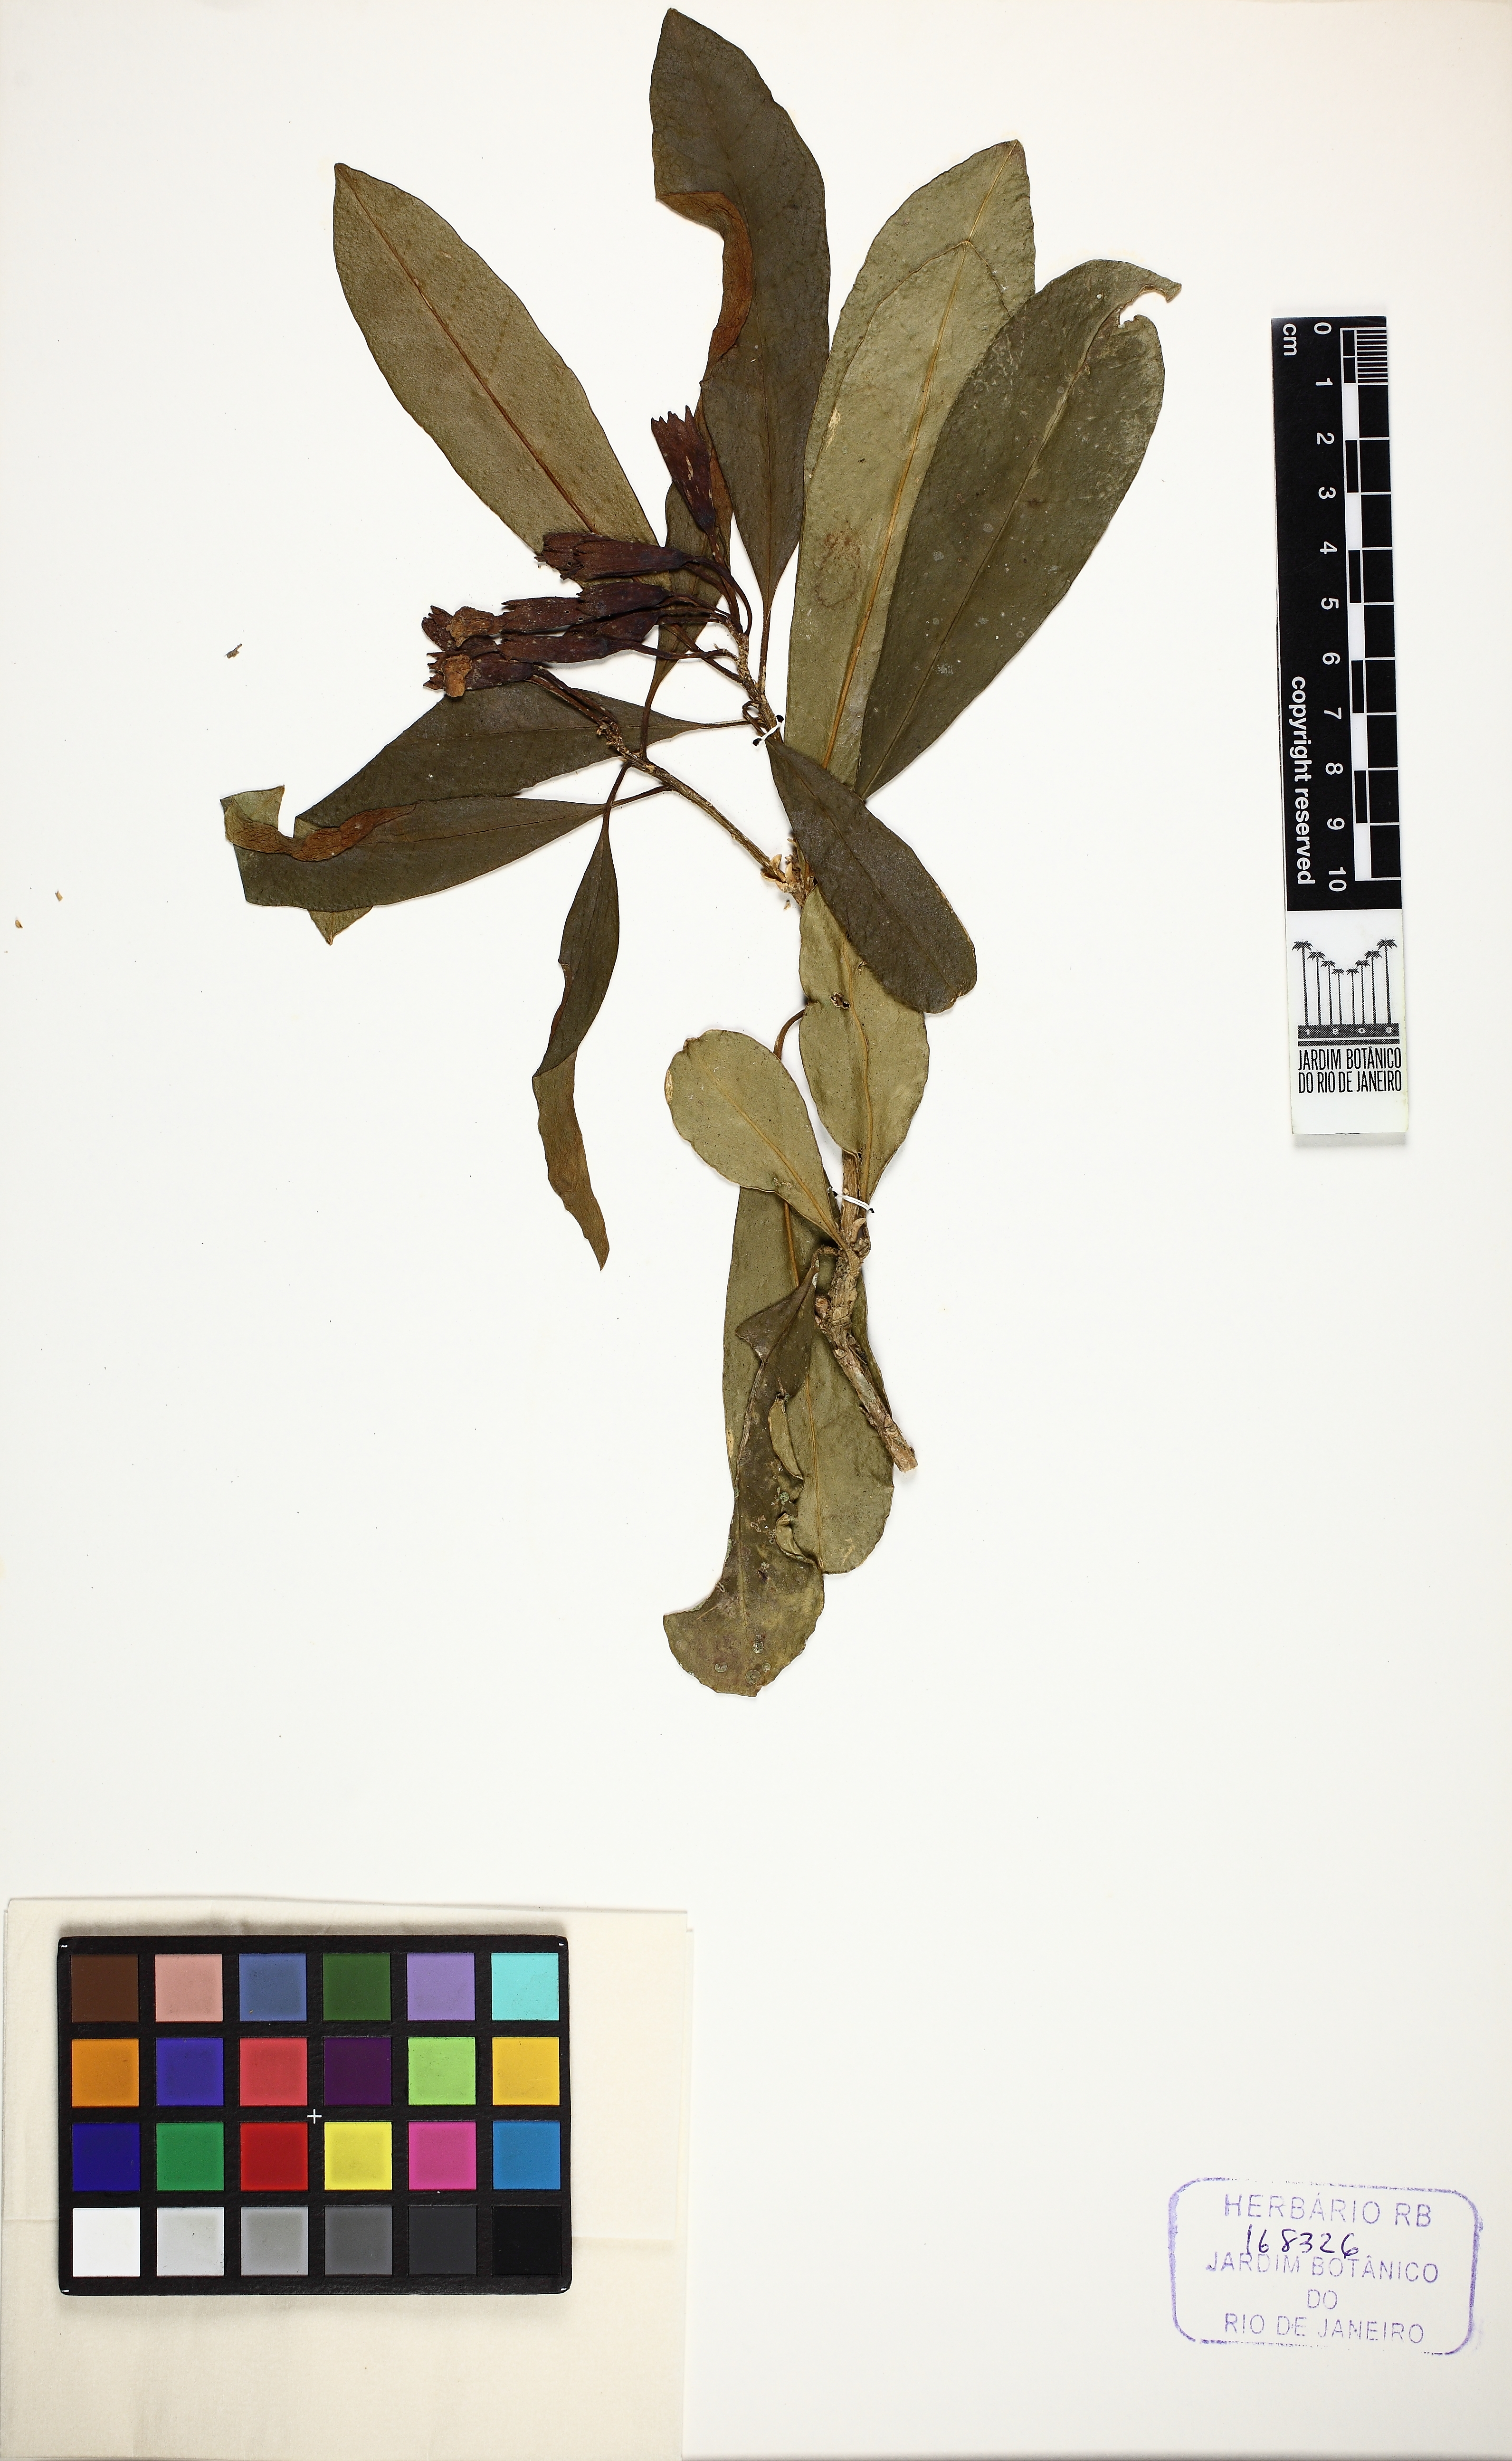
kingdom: Plantae
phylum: Tracheophyta
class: Magnoliopsida
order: Solanales
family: Solanaceae
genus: Brunfelsia
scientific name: Brunfelsia pauciflora
